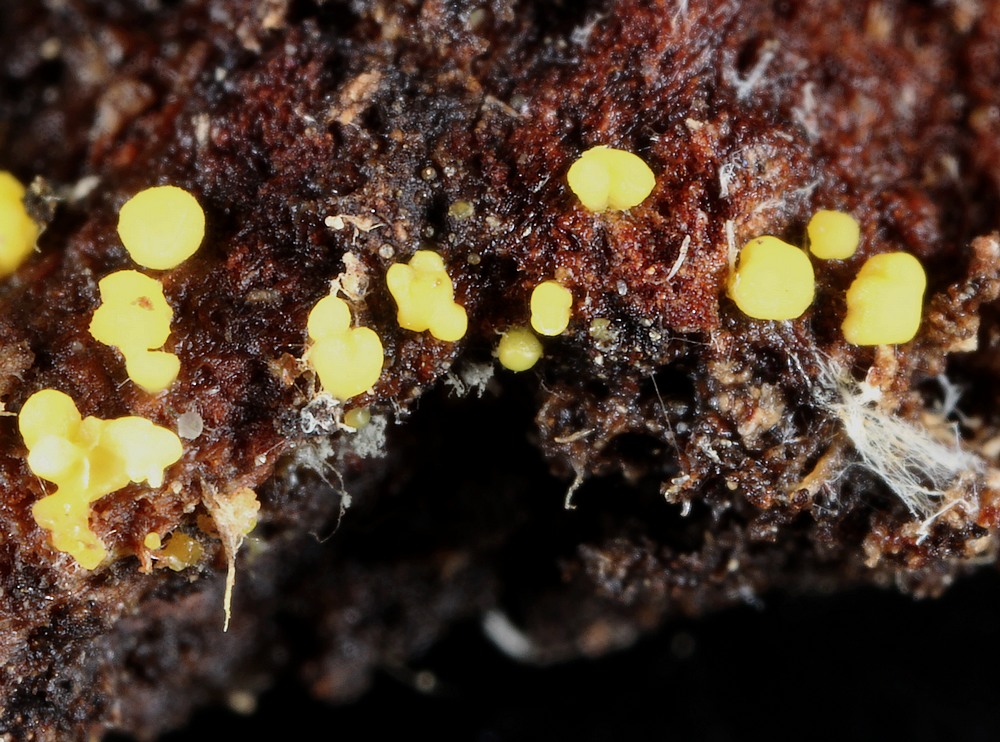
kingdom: Fungi
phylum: Ascomycota
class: Leotiomycetes
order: Helotiales
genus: Lemalis
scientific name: Lemalis aurea
